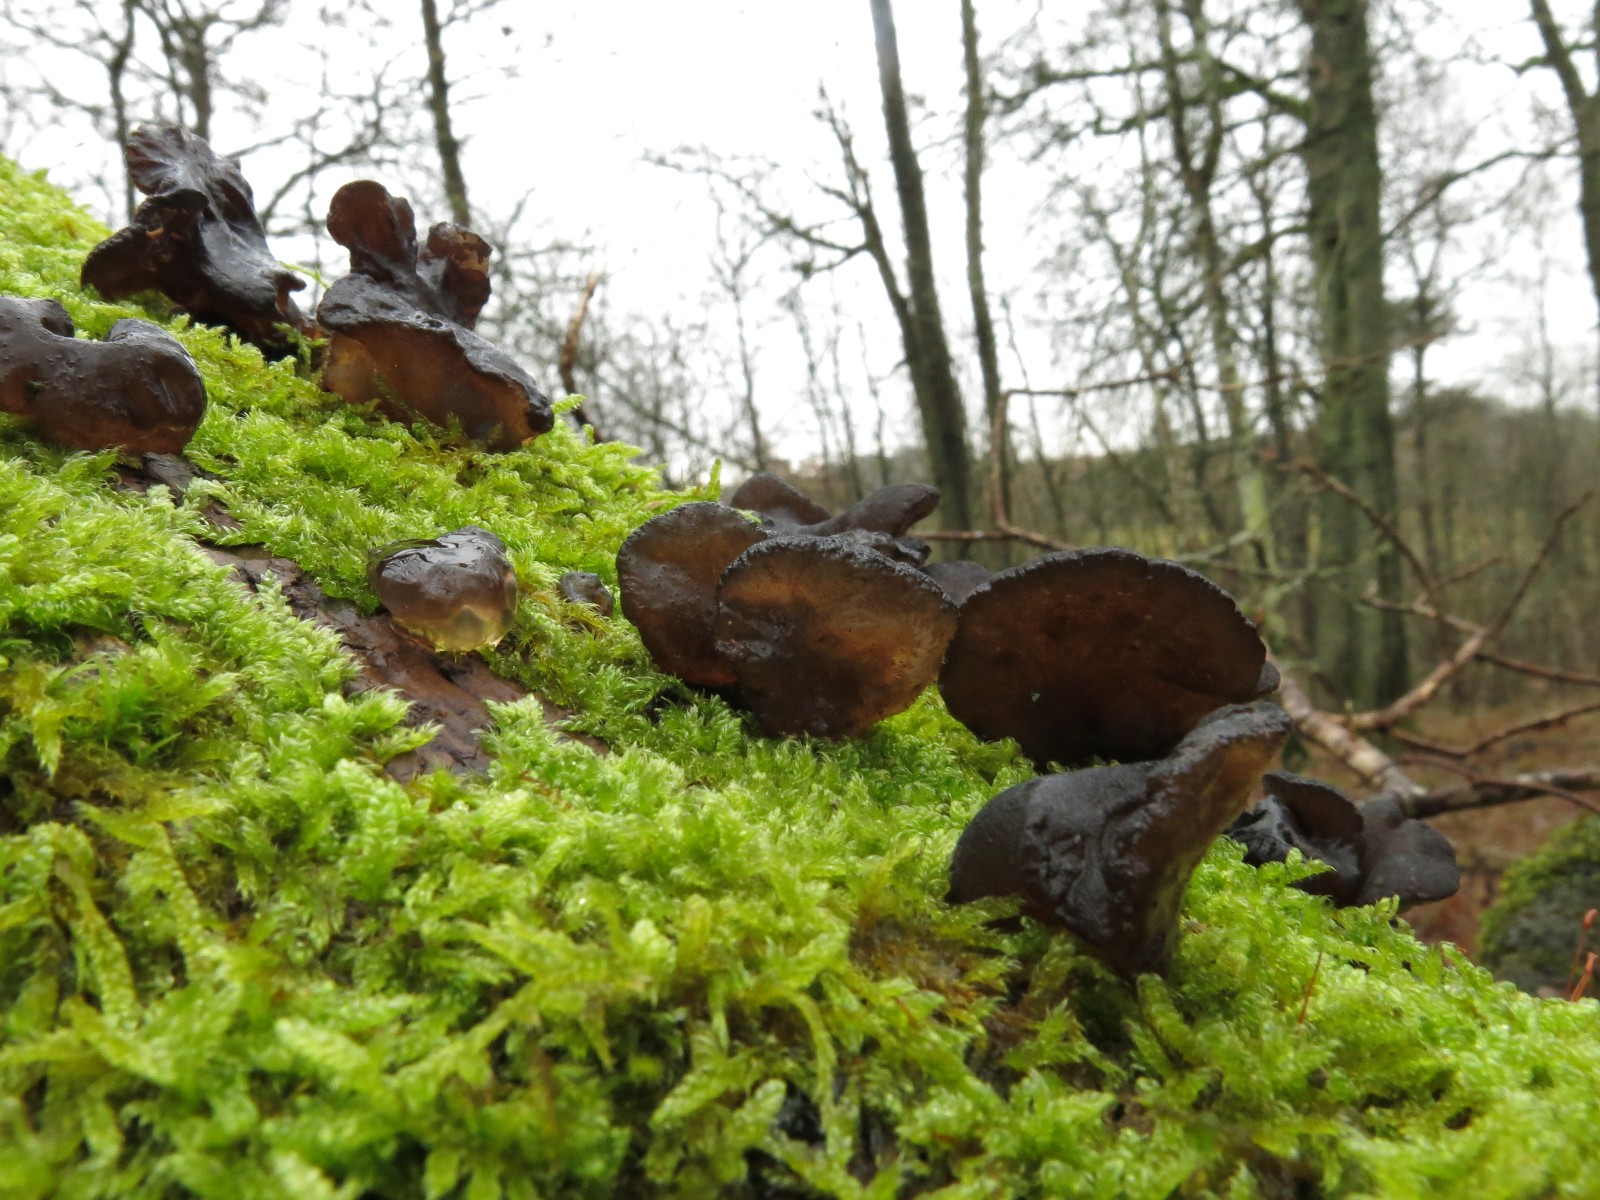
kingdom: Fungi
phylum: Basidiomycota
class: Agaricomycetes
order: Auriculariales
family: Auriculariaceae
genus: Exidia
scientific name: Exidia glandulosa
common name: ege-bævretop
